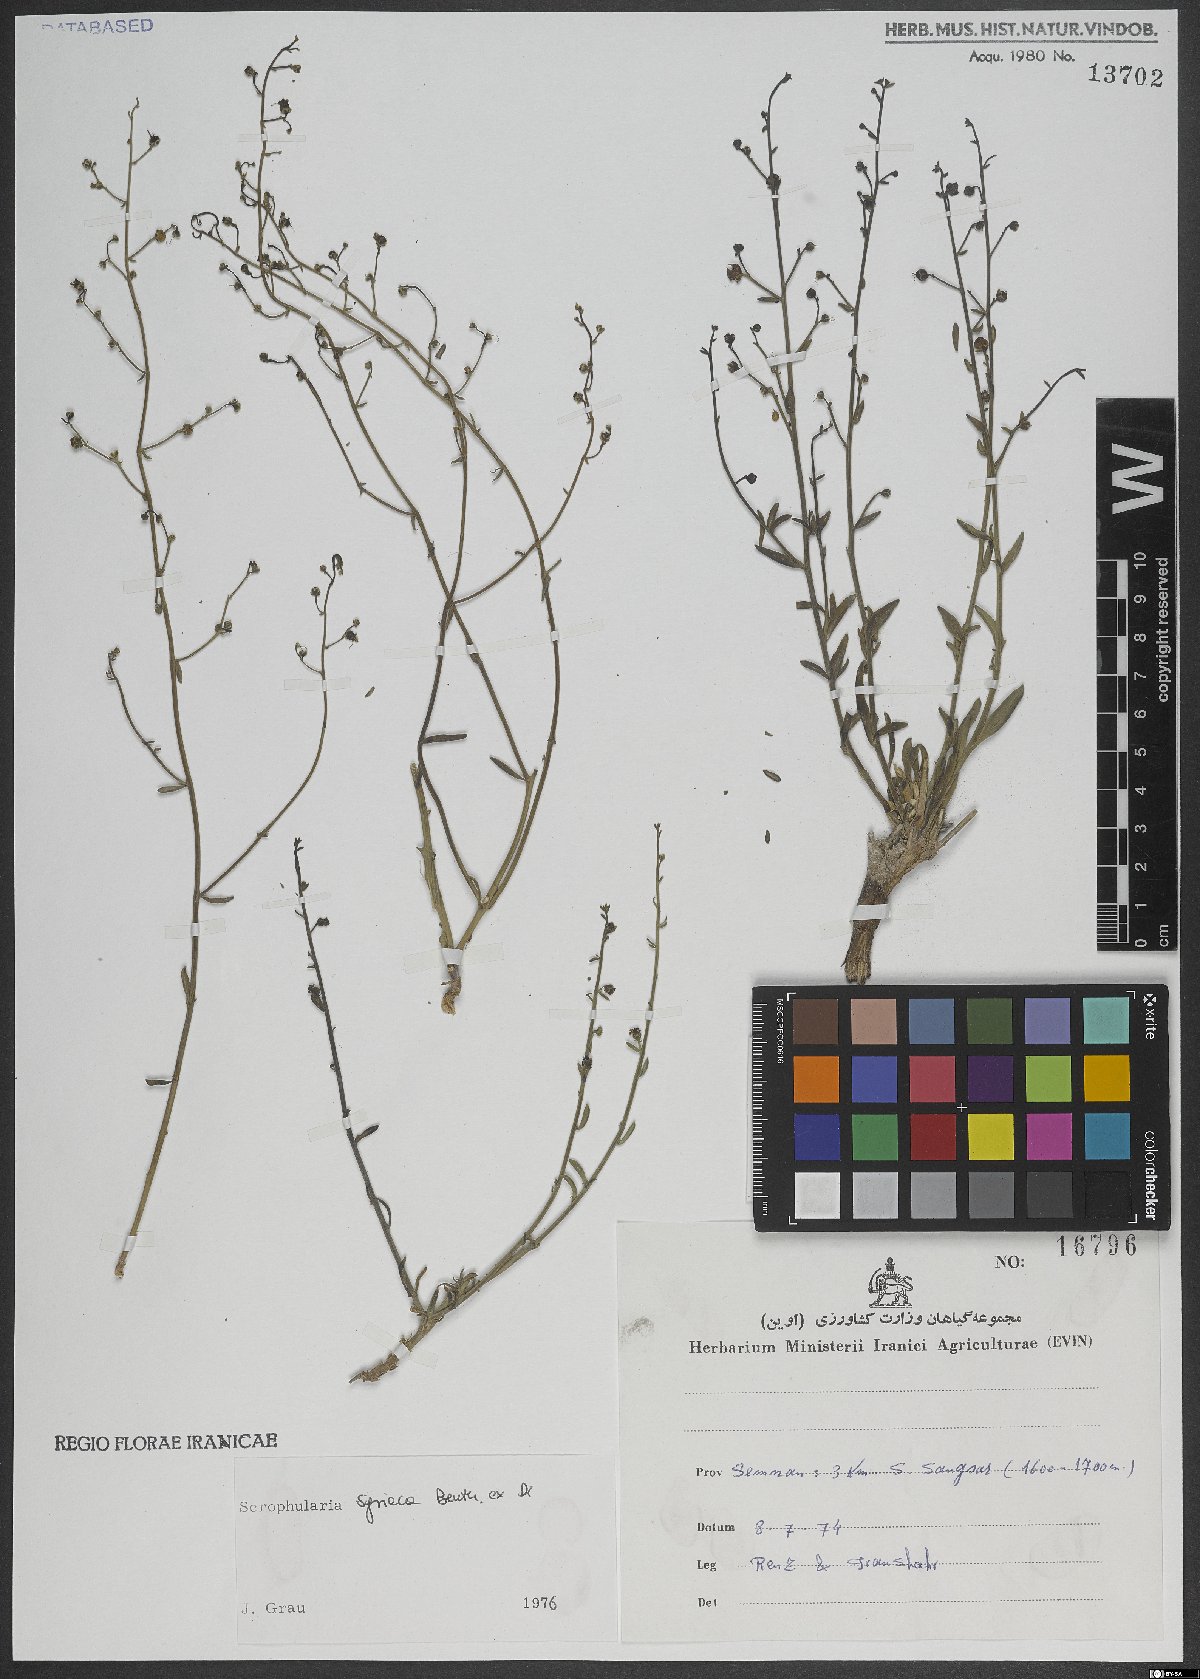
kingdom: Plantae
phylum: Tracheophyta
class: Magnoliopsida
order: Lamiales
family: Scrophulariaceae
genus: Scrophularia
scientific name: Scrophularia hypericifolia
